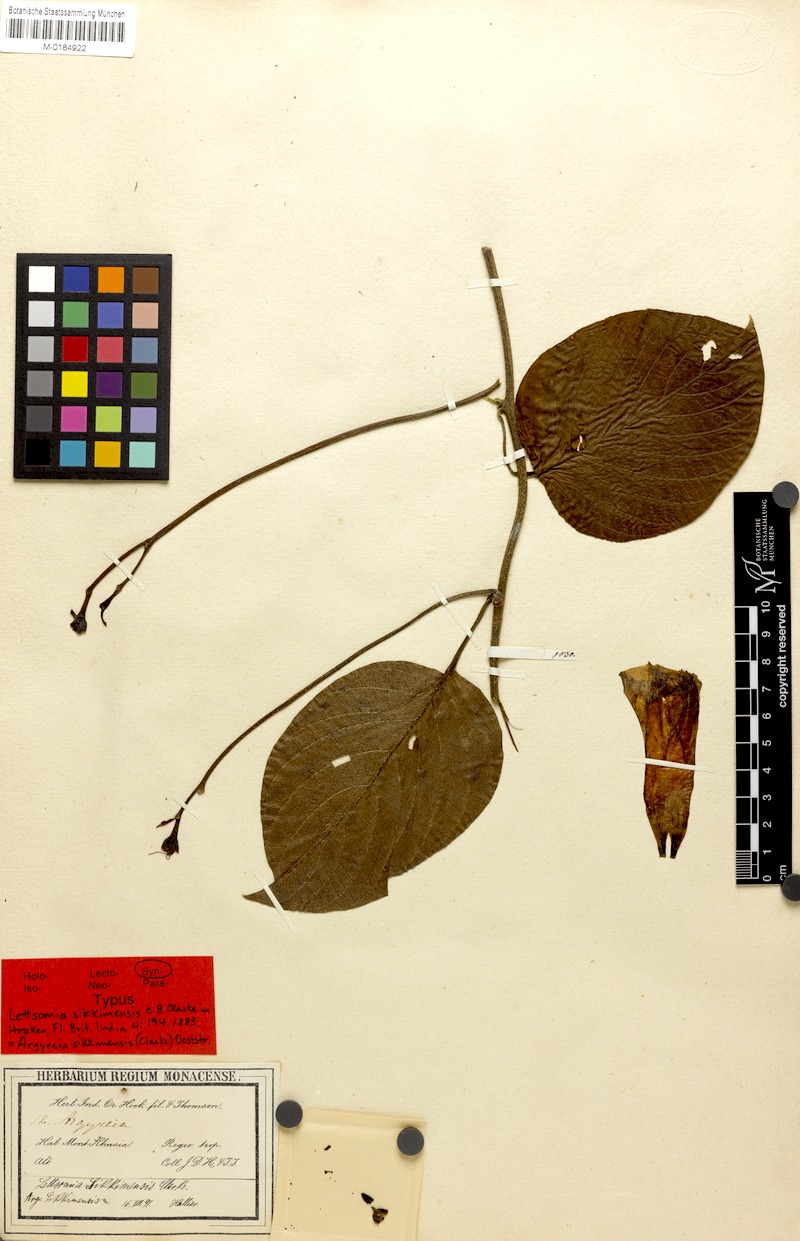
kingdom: Plantae
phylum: Tracheophyta
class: Magnoliopsida
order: Solanales
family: Convolvulaceae
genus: Argyreia
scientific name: Argyreia sikkimensis
